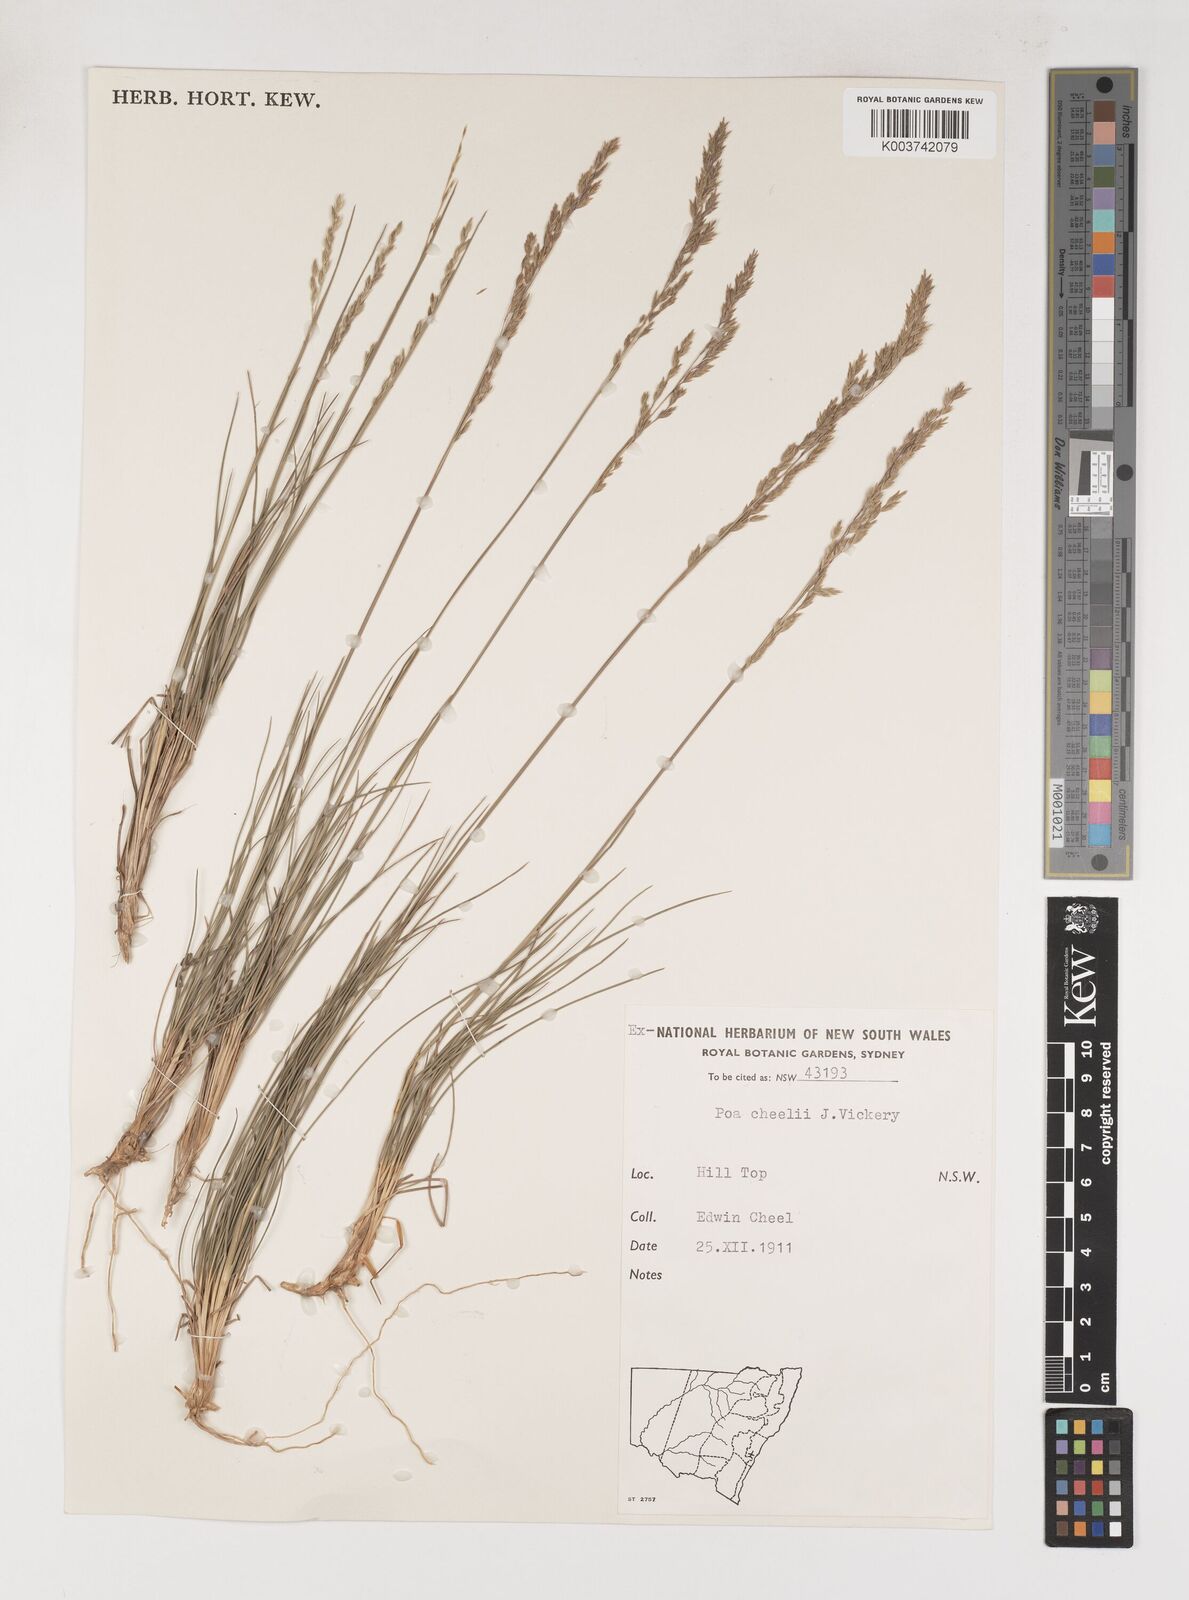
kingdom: Plantae
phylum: Tracheophyta
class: Liliopsida
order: Poales
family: Poaceae
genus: Poa
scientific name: Poa cheelii
